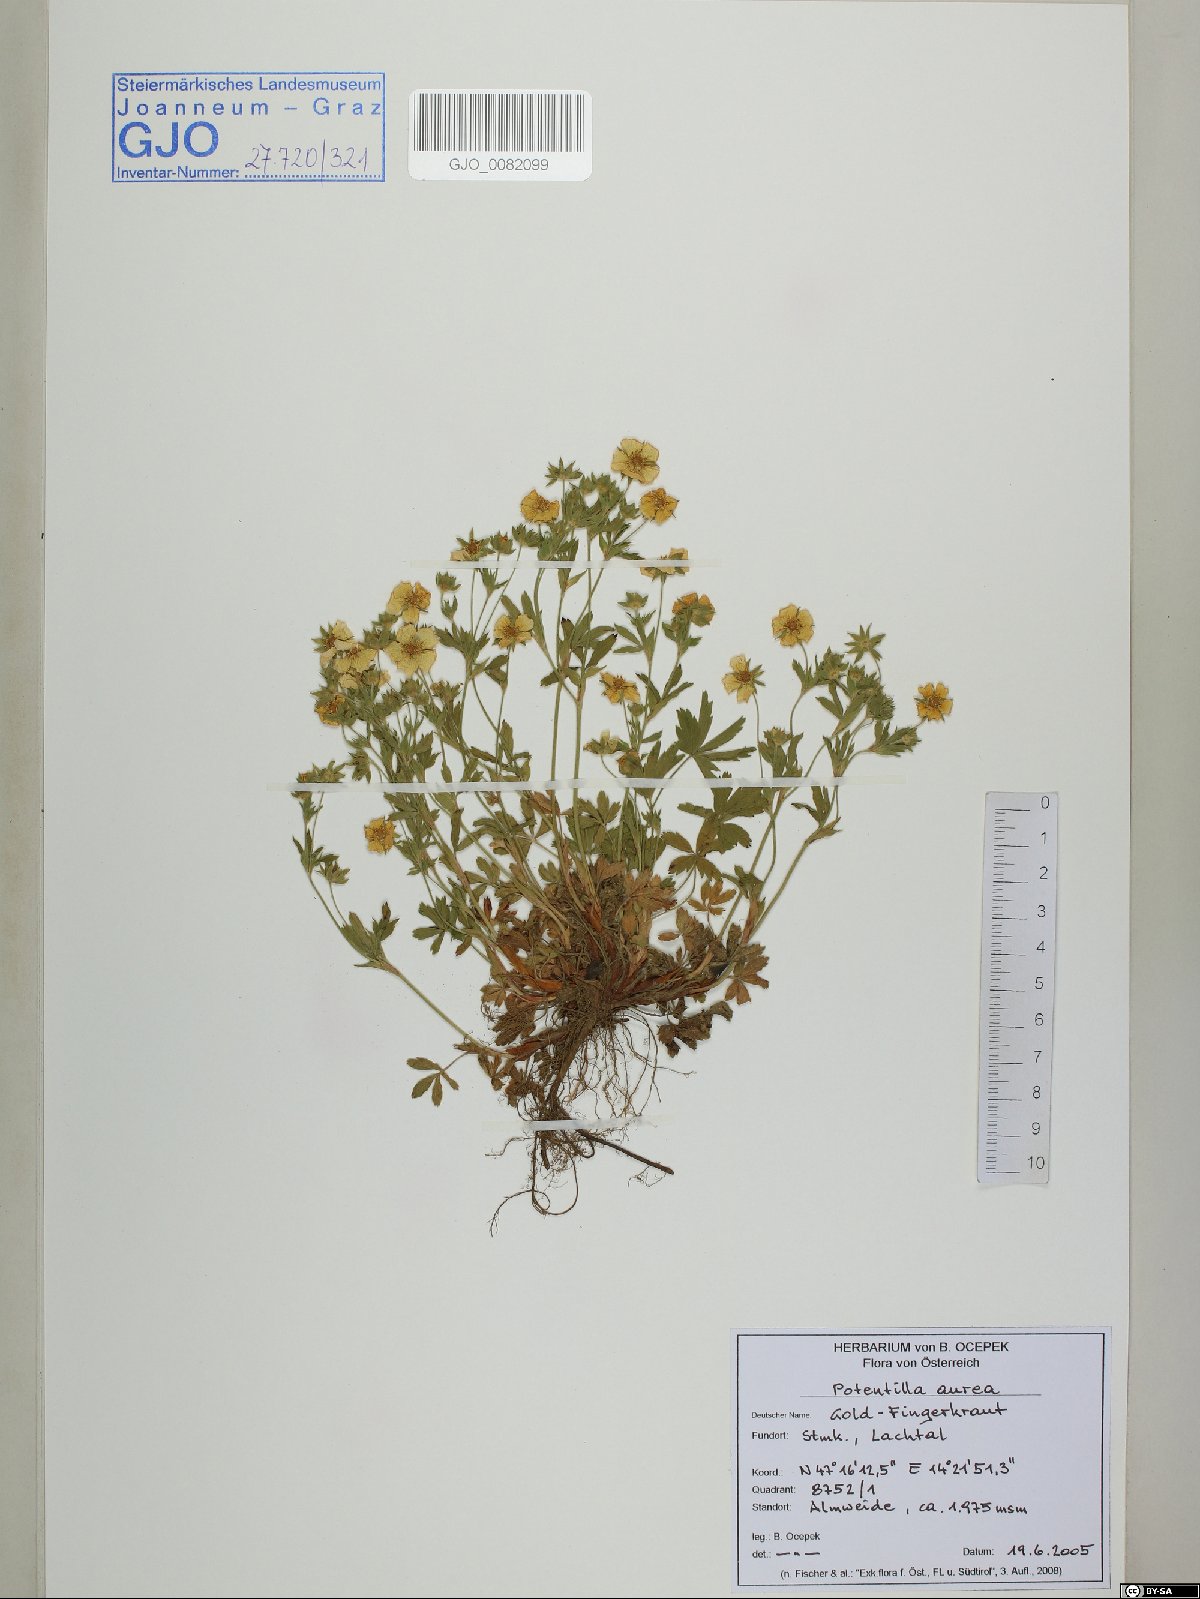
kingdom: Plantae
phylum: Tracheophyta
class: Magnoliopsida
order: Rosales
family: Rosaceae
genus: Potentilla
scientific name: Potentilla aurea
